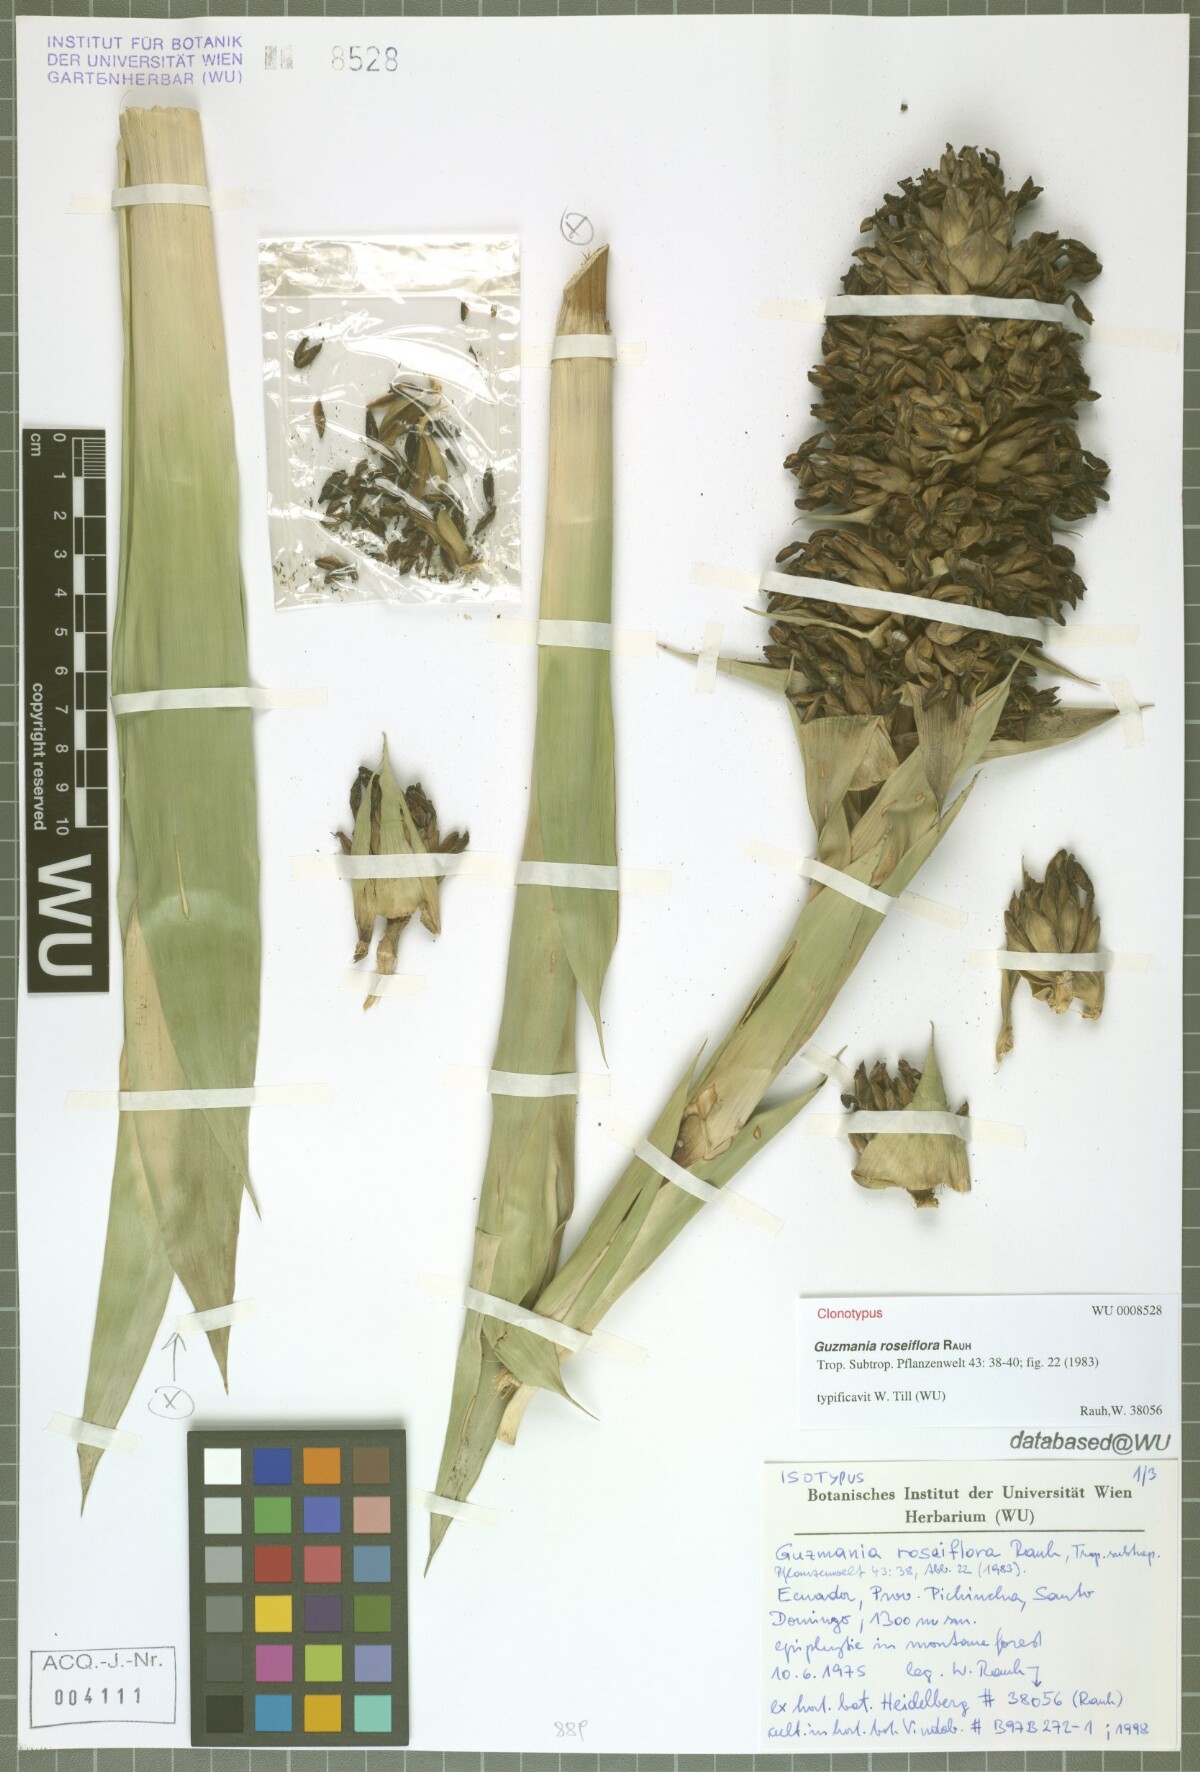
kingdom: Plantae
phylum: Tracheophyta
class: Liliopsida
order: Poales
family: Bromeliaceae
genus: Guzmania
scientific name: Guzmania roseiflora
